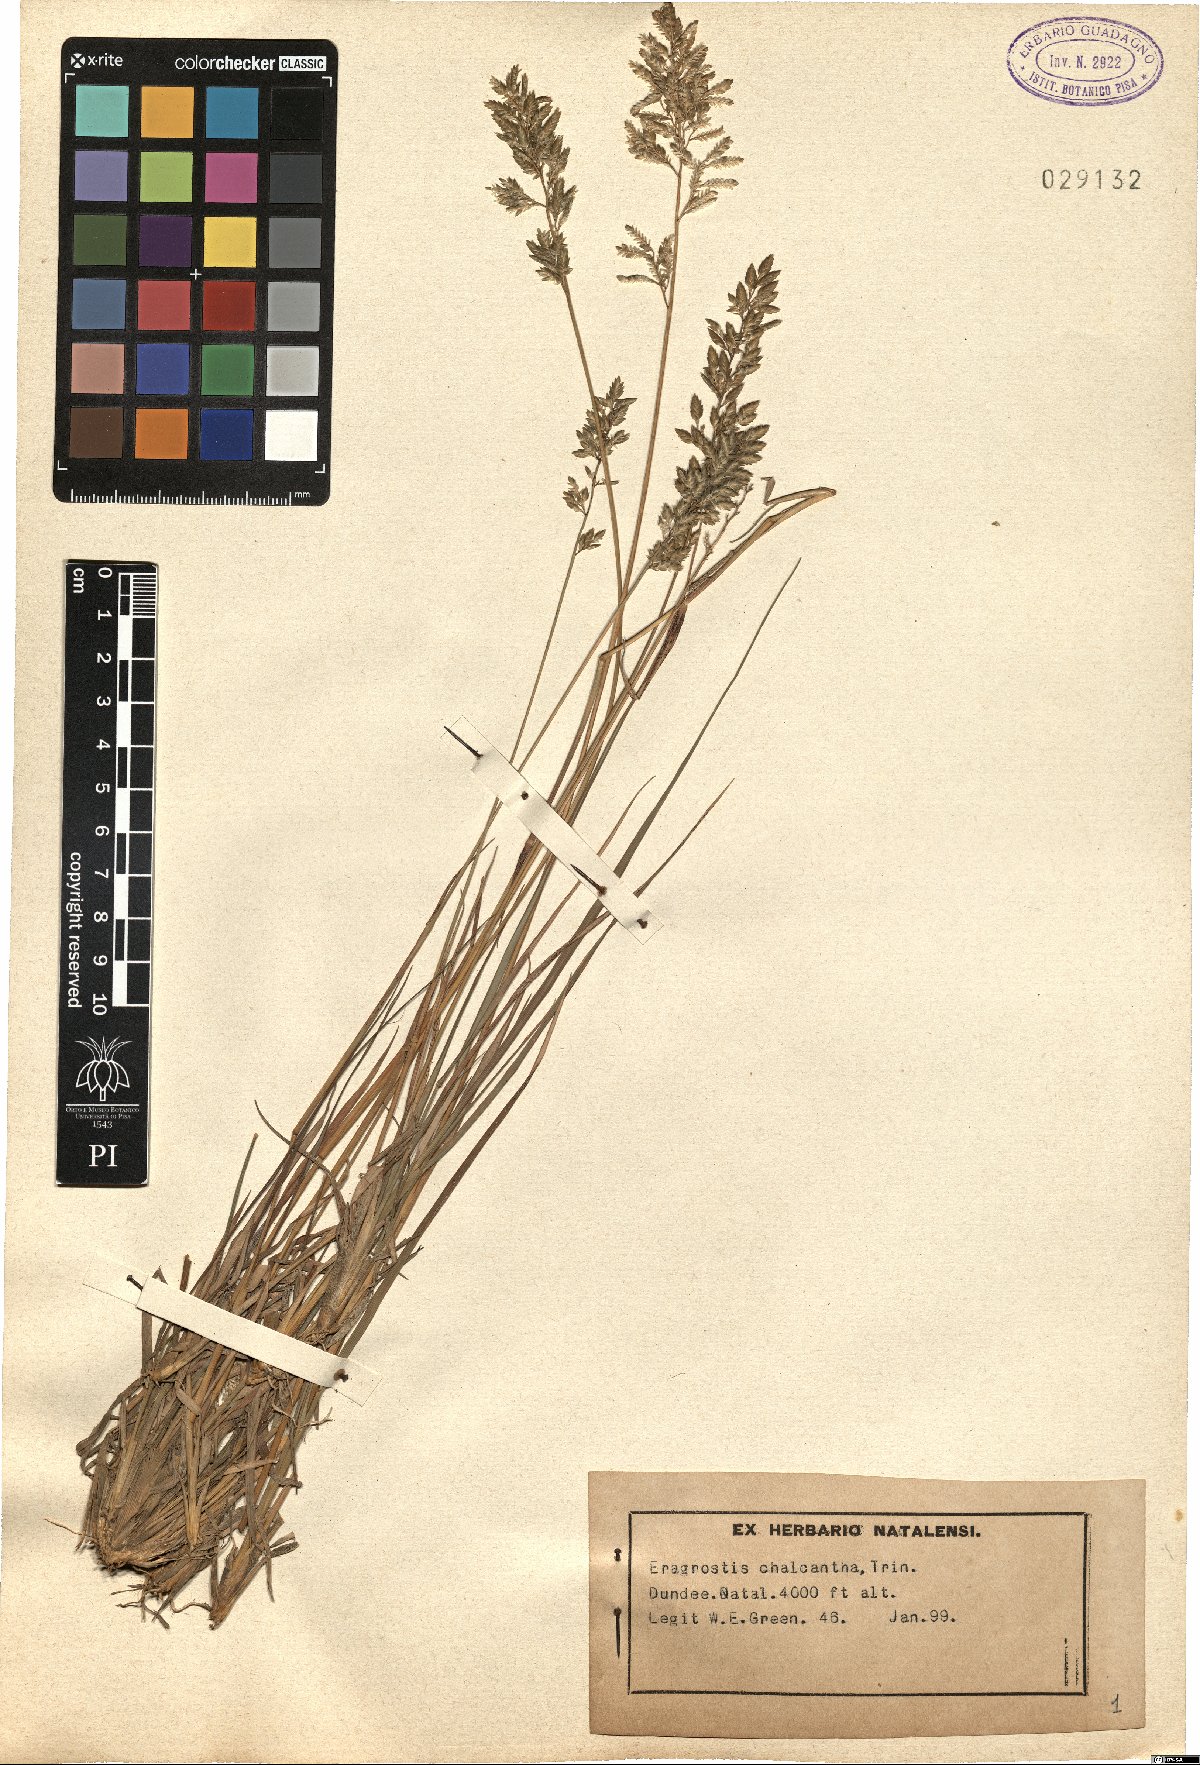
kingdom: Plantae
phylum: Tracheophyta
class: Liliopsida
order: Poales
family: Poaceae
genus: Eragrostis
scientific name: Eragrostis racemosa
